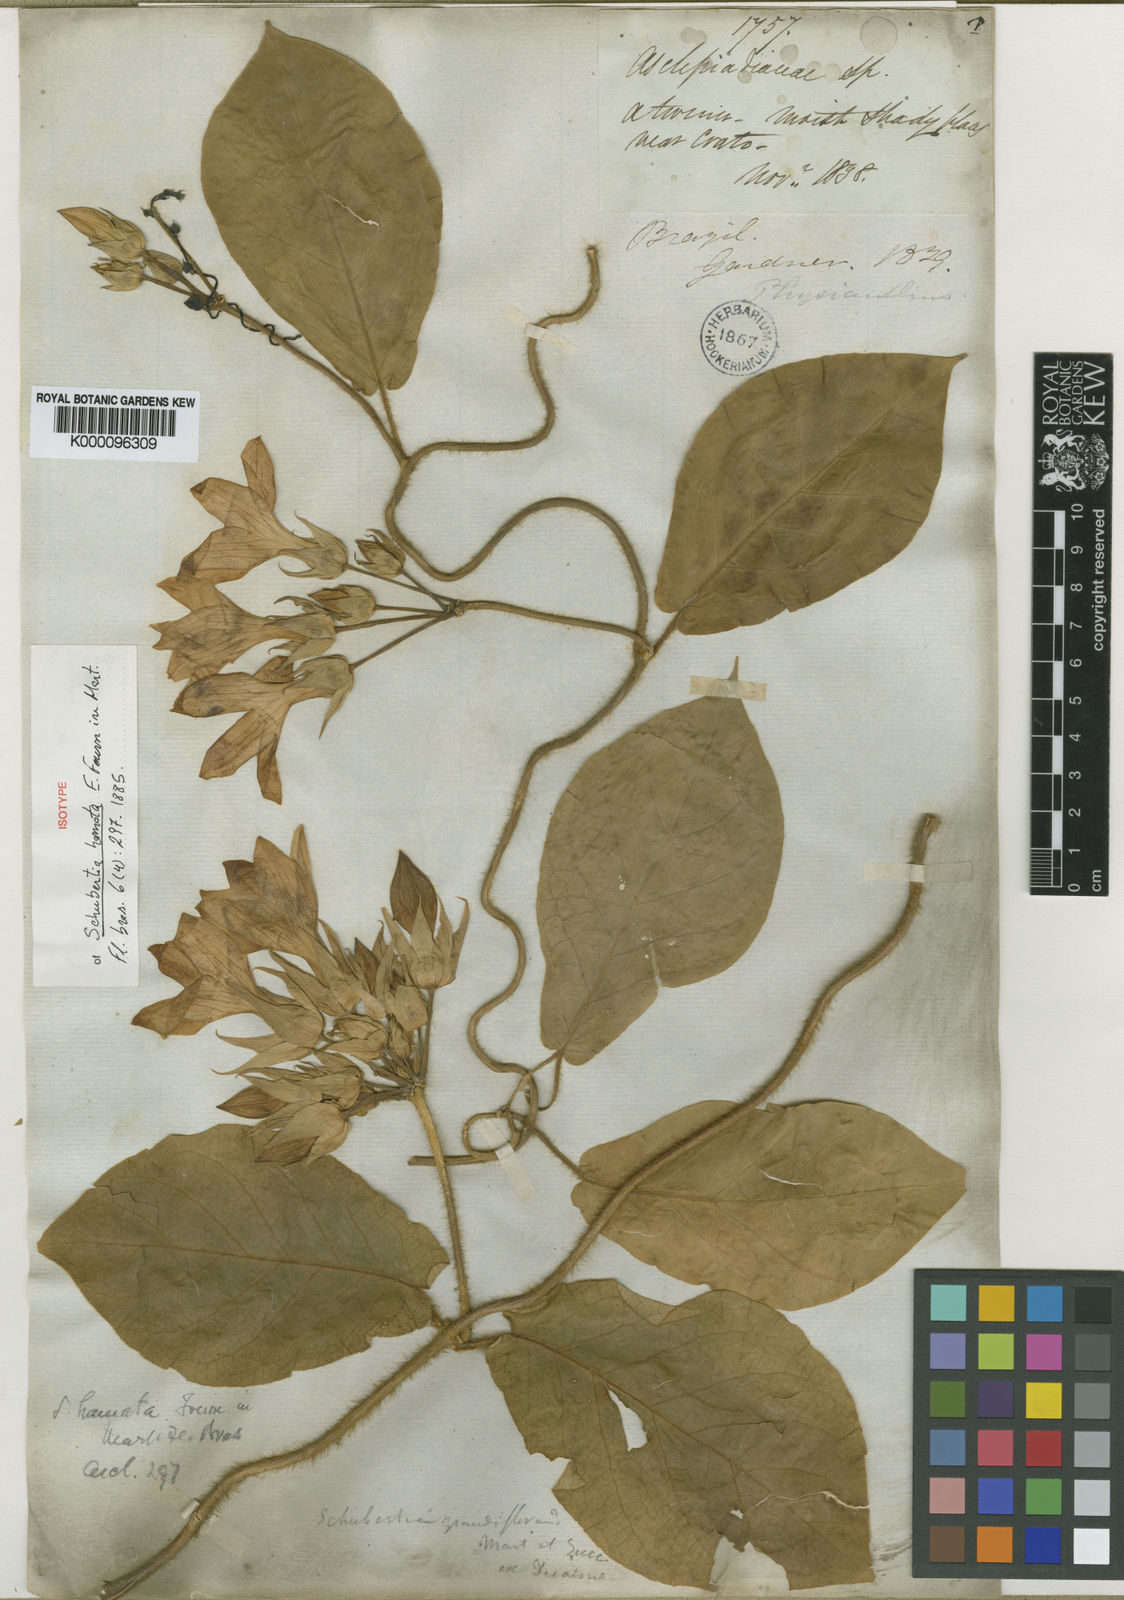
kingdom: Plantae
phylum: Tracheophyta
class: Magnoliopsida
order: Gentianales
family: Apocynaceae
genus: Macroscepis
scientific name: Macroscepis grandiflora
